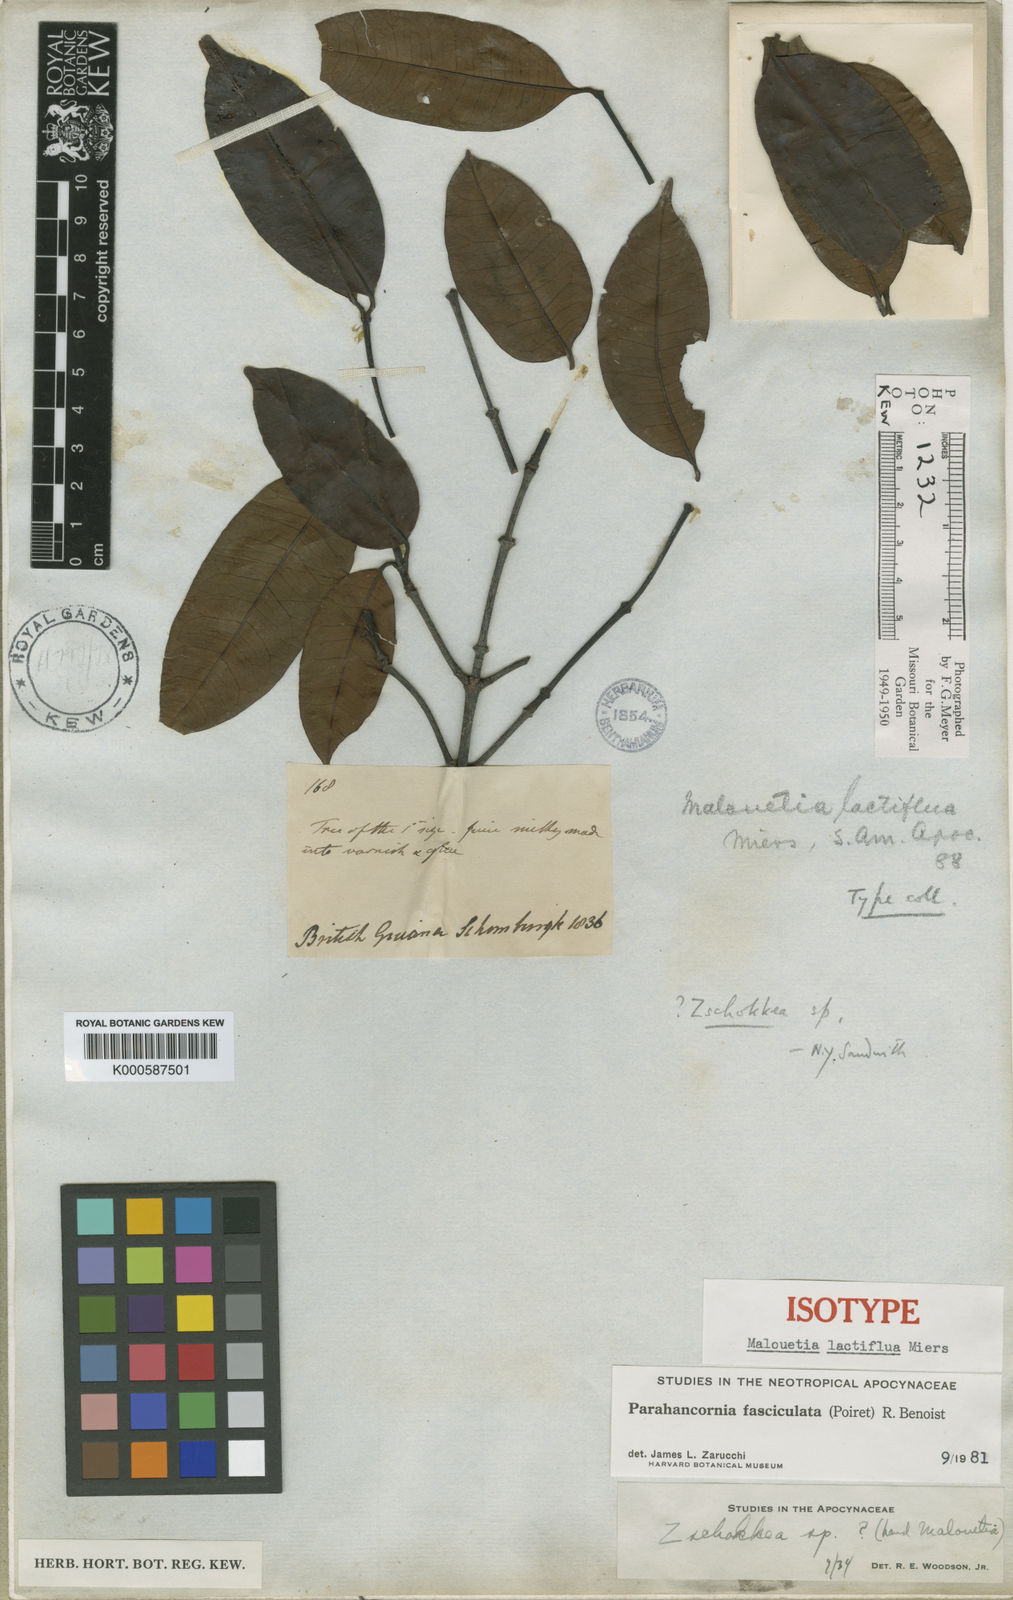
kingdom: Plantae
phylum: Tracheophyta
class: Magnoliopsida
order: Gentianales
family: Apocynaceae
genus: Parahancornia
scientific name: Parahancornia fasciculata
